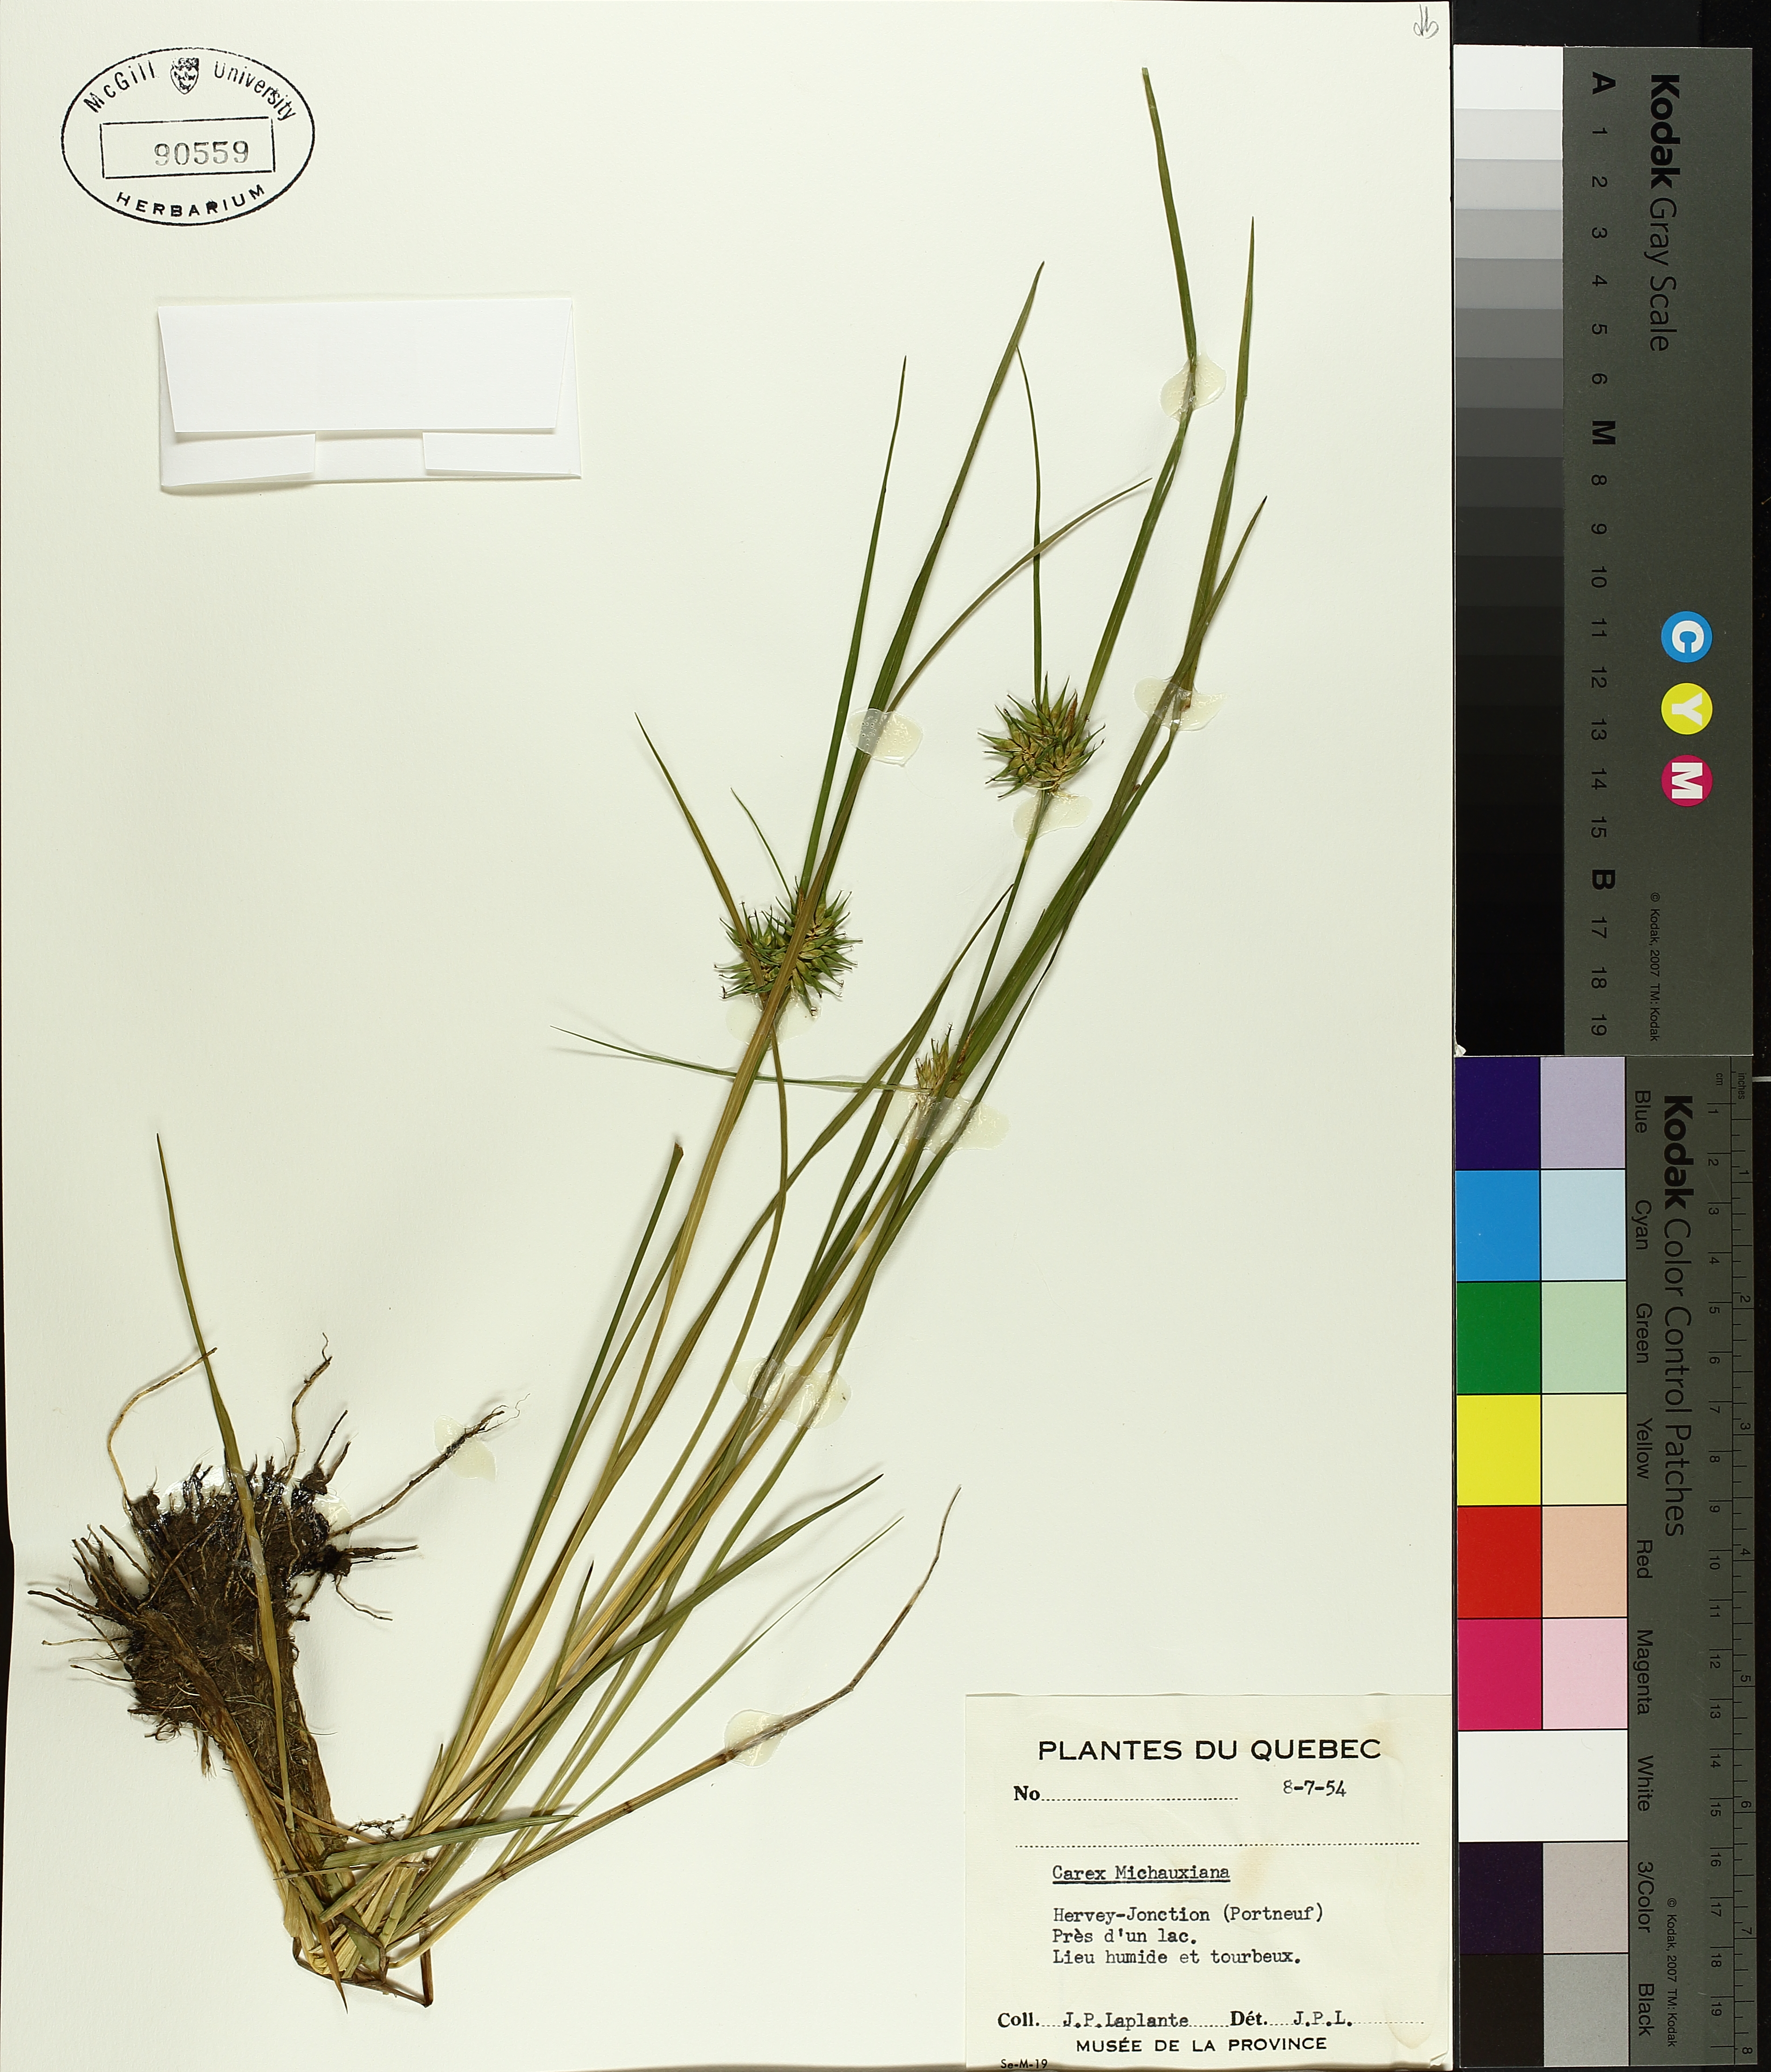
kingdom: Plantae
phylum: Tracheophyta
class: Liliopsida
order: Poales
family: Cyperaceae
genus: Carex
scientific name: Carex michauxiana
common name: Michaux's sedge
